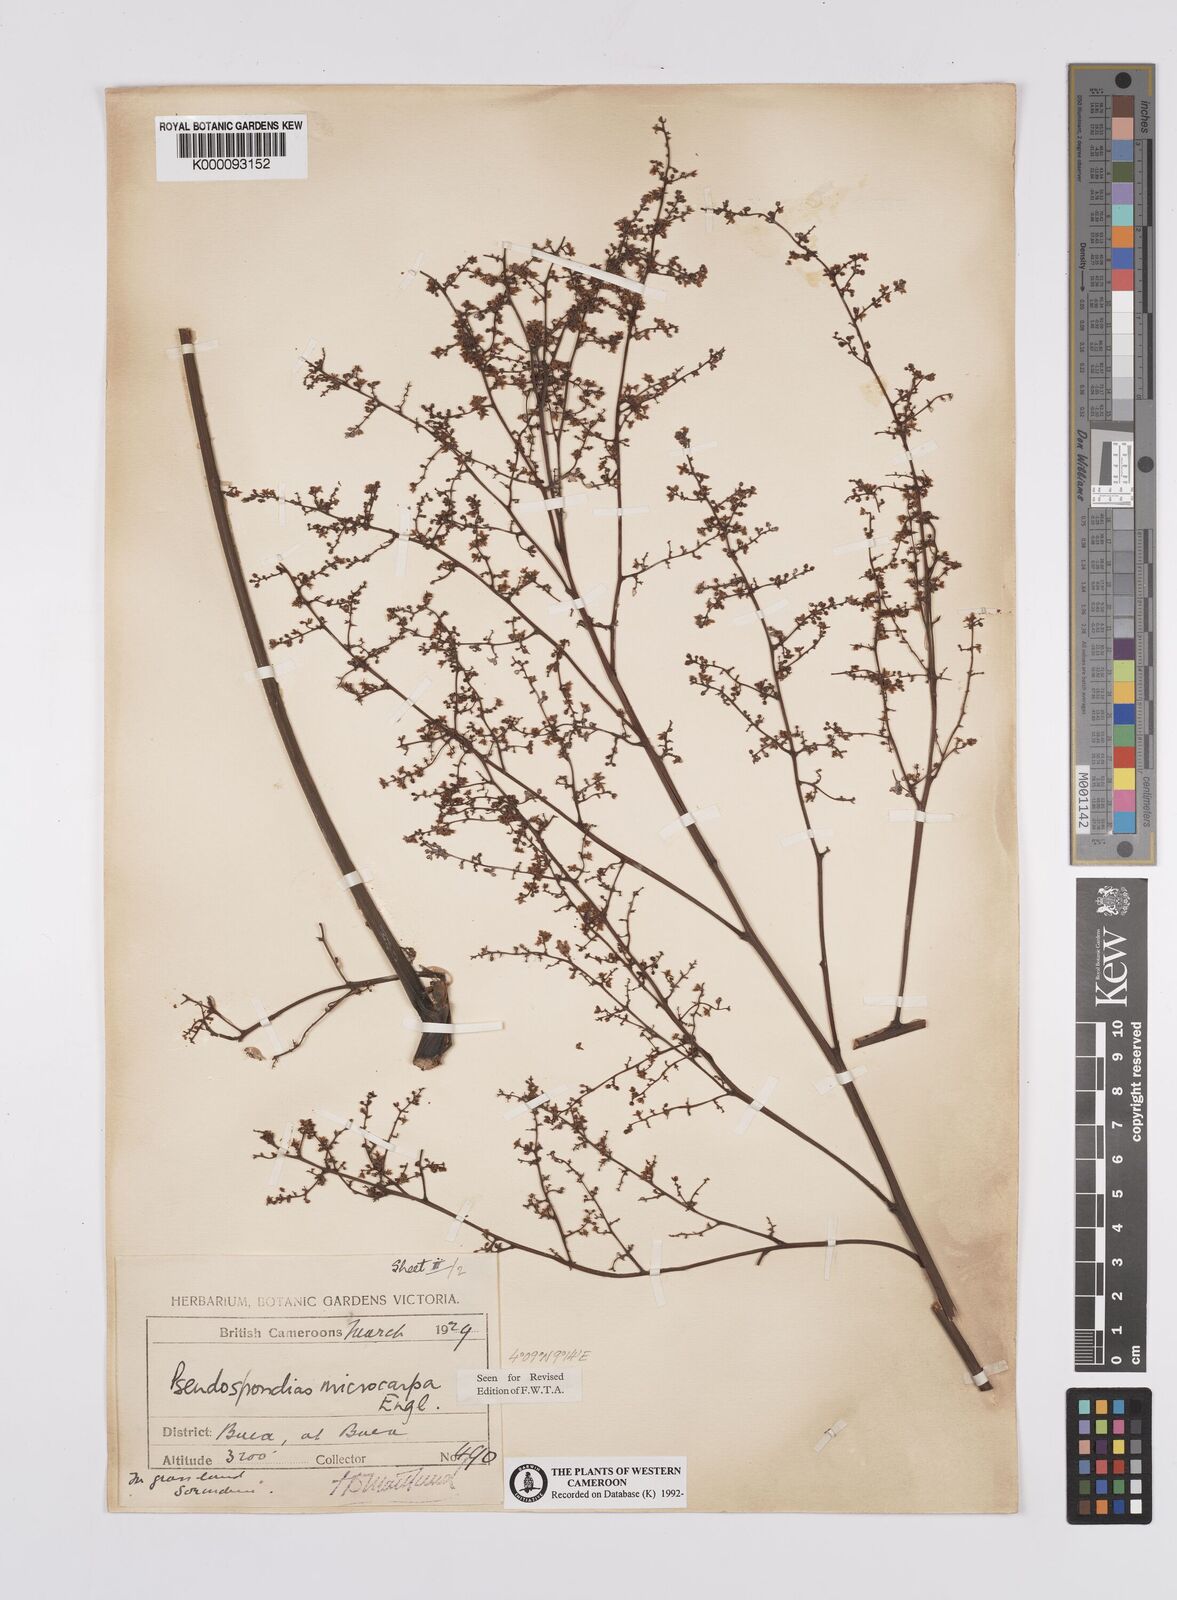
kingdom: Plantae
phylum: Tracheophyta
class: Magnoliopsida
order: Sapindales
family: Anacardiaceae
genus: Pseudospondias
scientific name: Pseudospondias microcarpa
